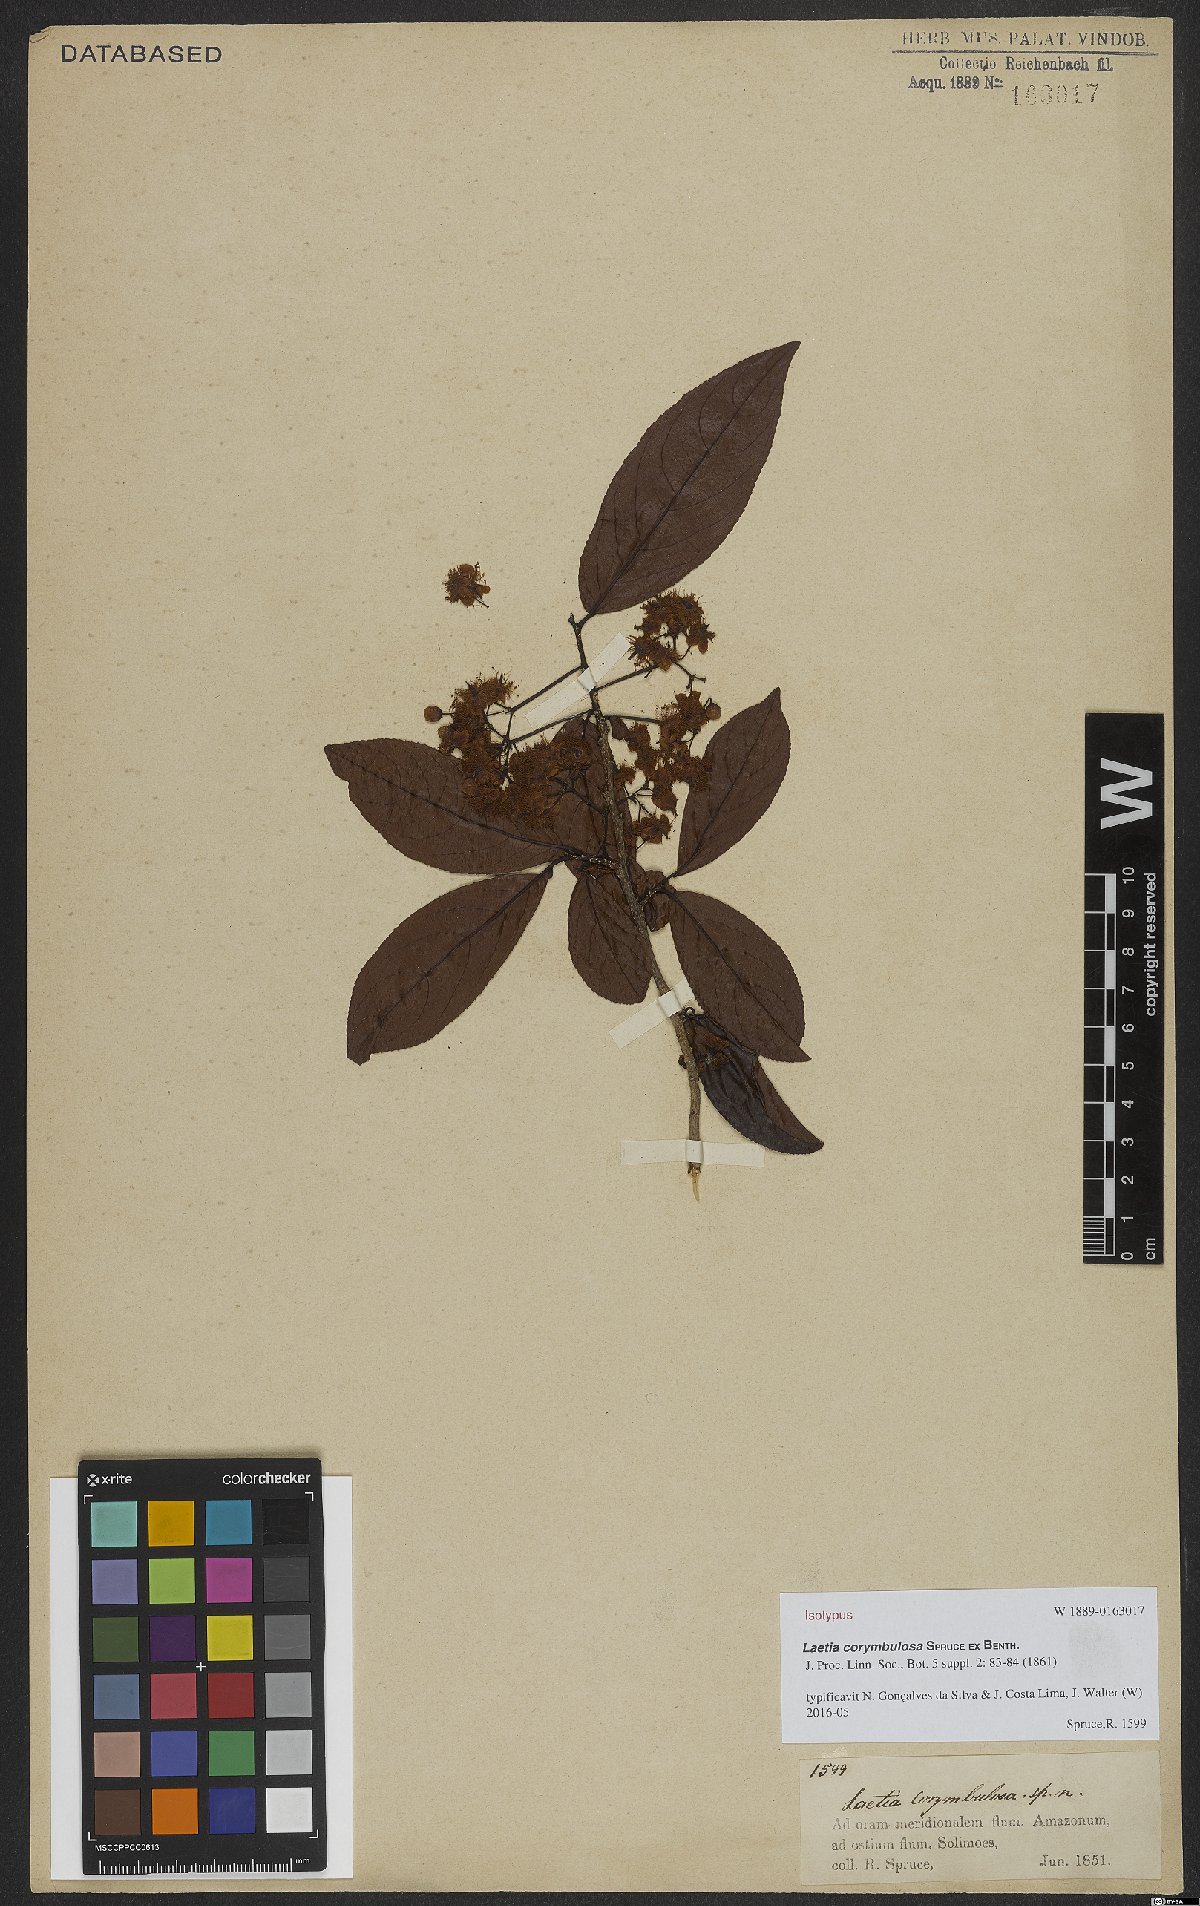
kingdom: Plantae
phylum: Tracheophyta
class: Magnoliopsida
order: Malpighiales
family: Salicaceae
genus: Casearia
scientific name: Casearia corymbulosa
